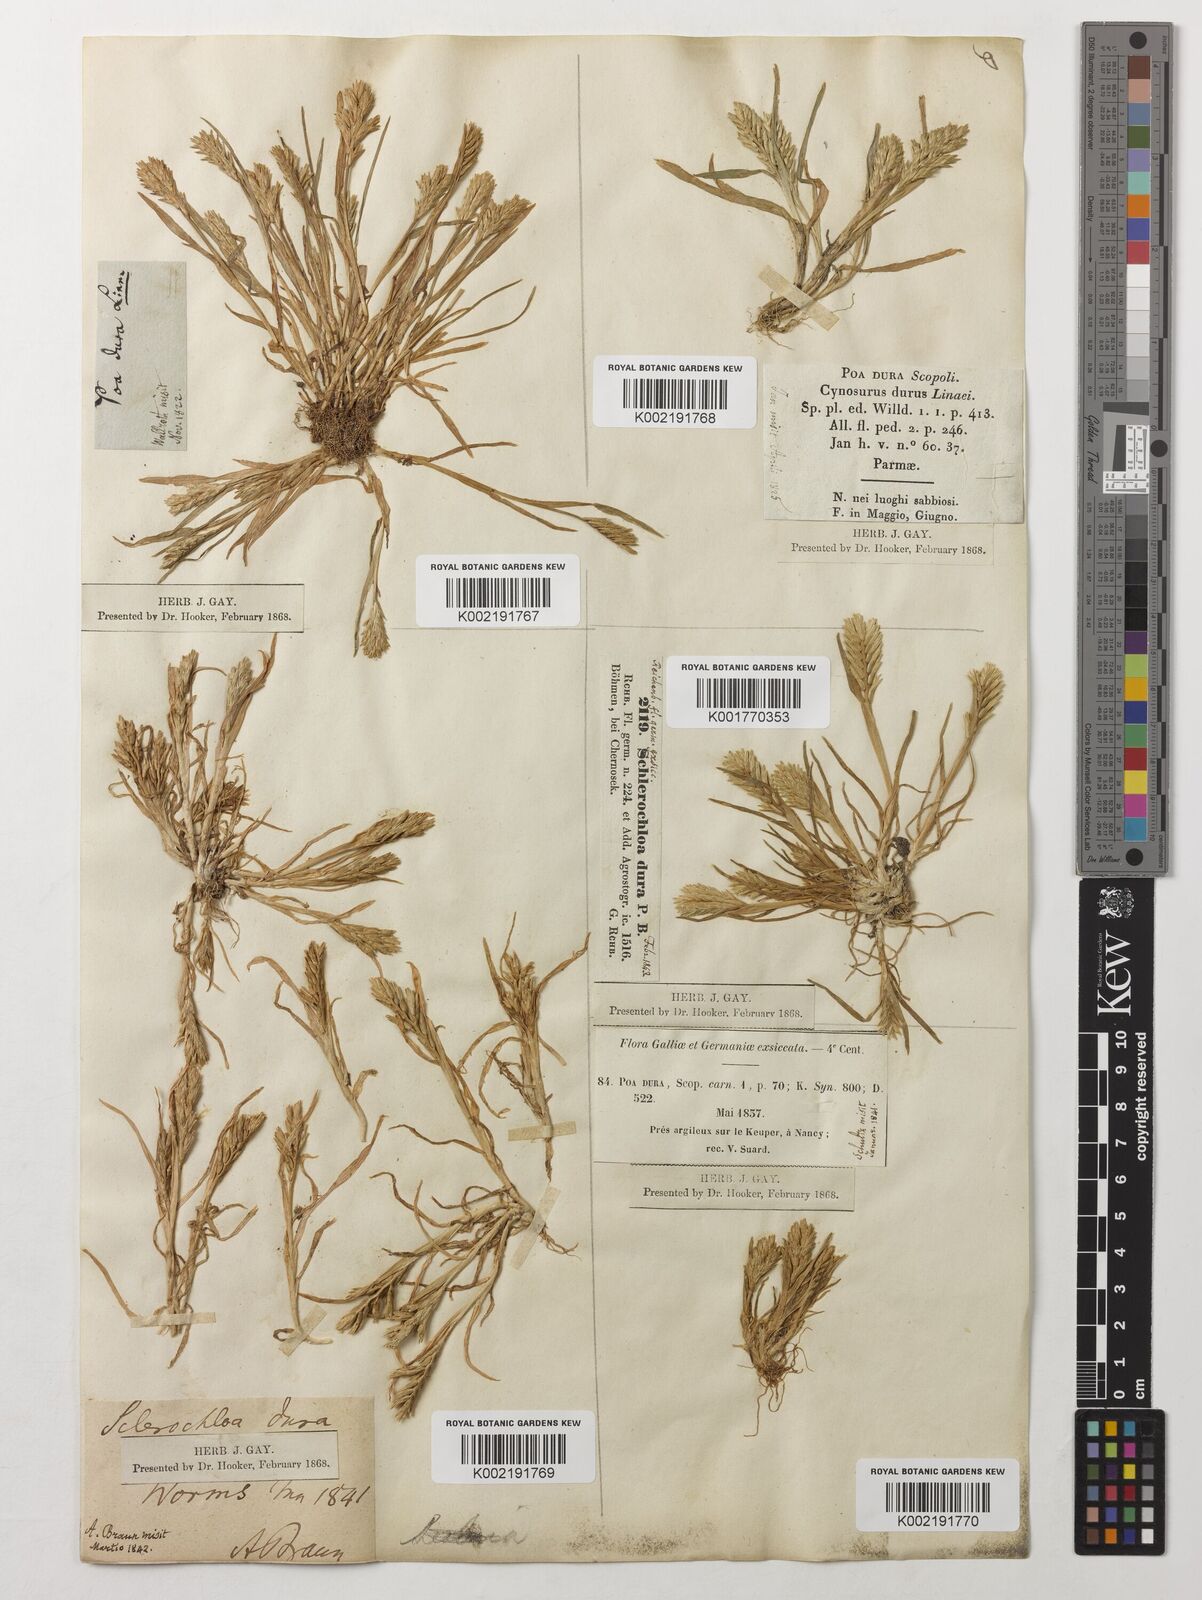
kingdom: Plantae
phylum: Tracheophyta
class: Liliopsida
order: Poales
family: Poaceae
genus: Sclerochloa
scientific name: Sclerochloa dura
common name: Common hardgrass
